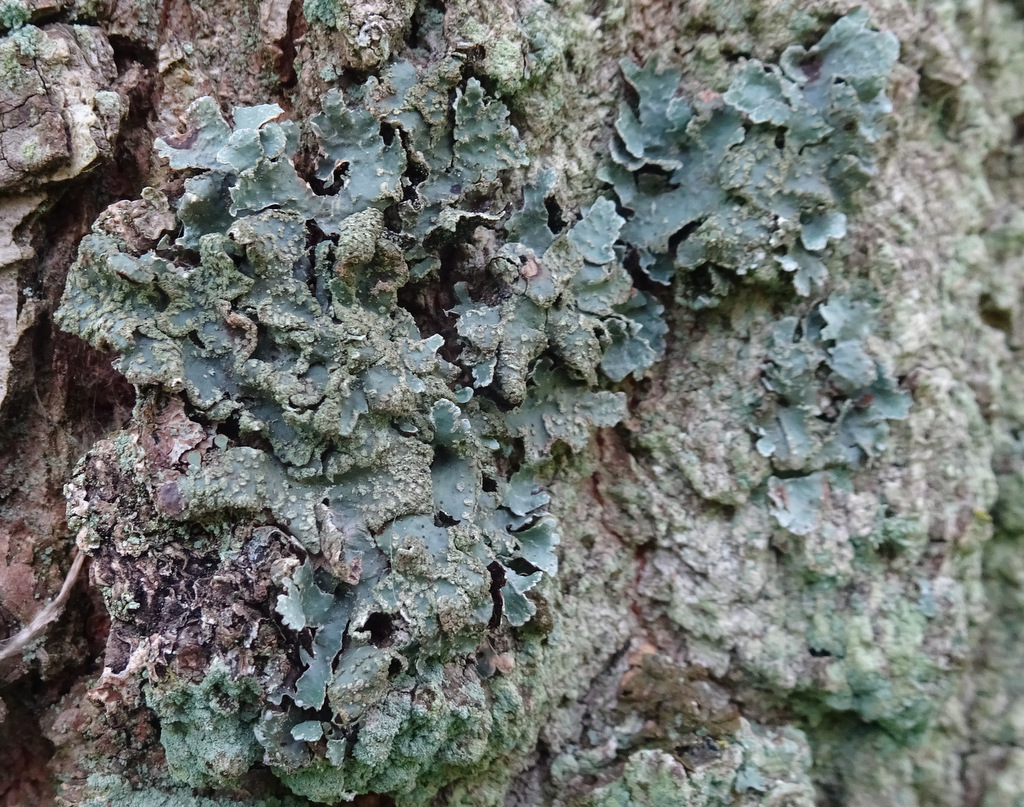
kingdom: Fungi
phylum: Ascomycota
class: Lecanoromycetes
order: Lecanorales
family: Parmeliaceae
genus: Parmelia
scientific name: Parmelia sulcata
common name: rynket skållav
